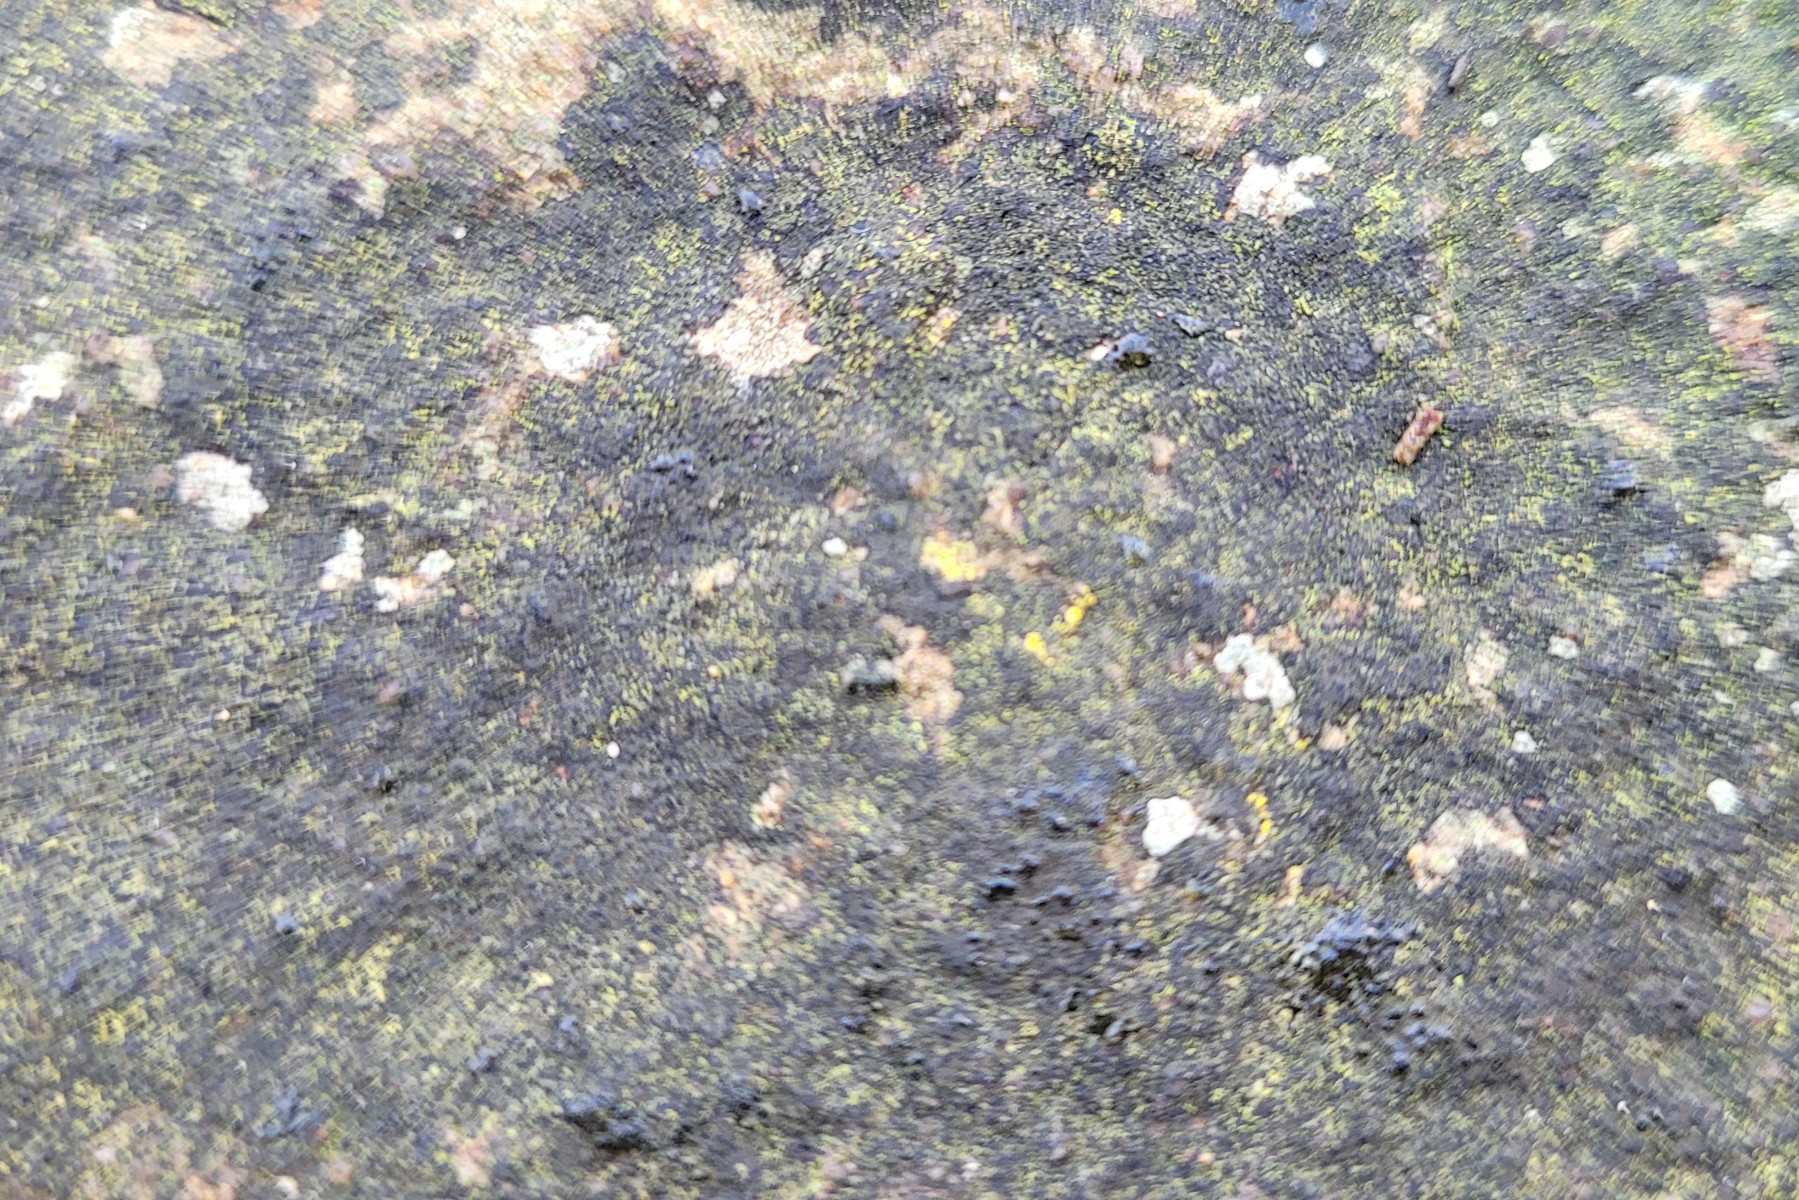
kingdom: Fungi
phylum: Ascomycota
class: Eurotiomycetes
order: Verrucariales
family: Verrucariaceae
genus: Verrucaria
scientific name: Verrucaria nigrescens
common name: sortbrun vortelav
